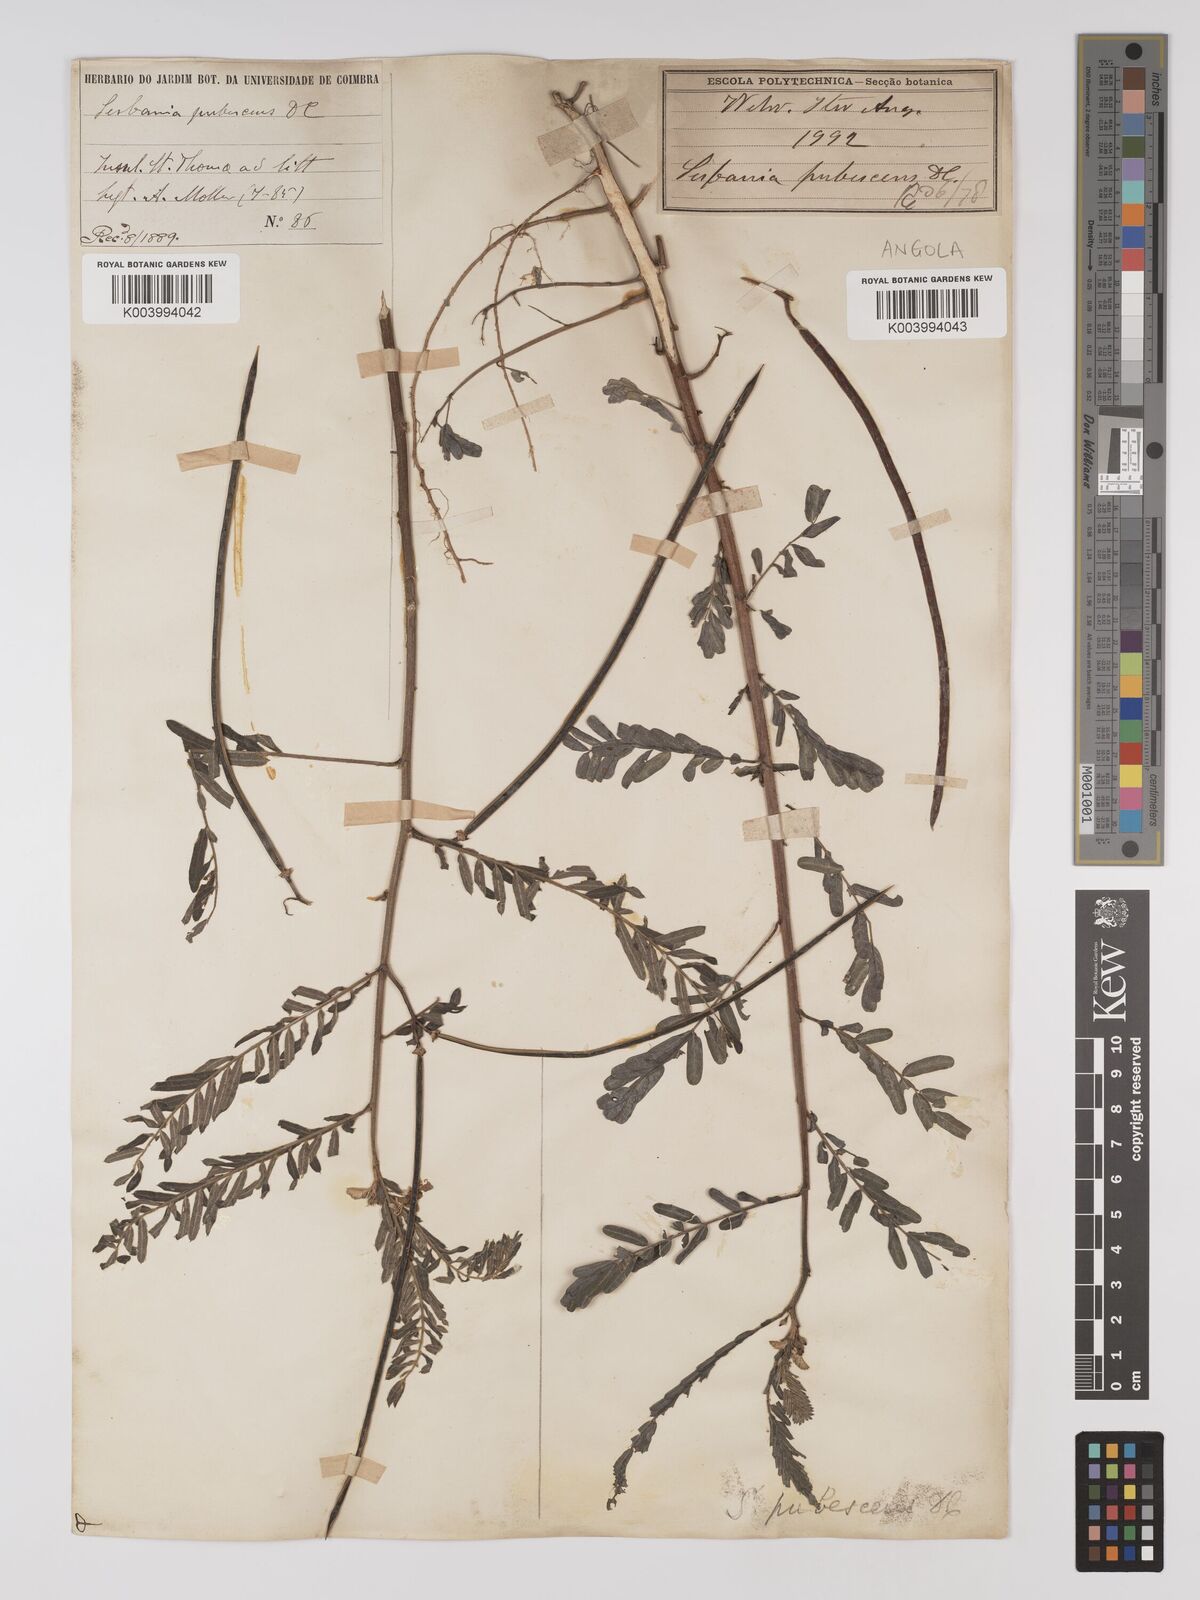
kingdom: Plantae
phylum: Tracheophyta
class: Magnoliopsida
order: Fabales
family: Fabaceae
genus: Sesbania
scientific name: Sesbania sericea
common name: Papagayo
